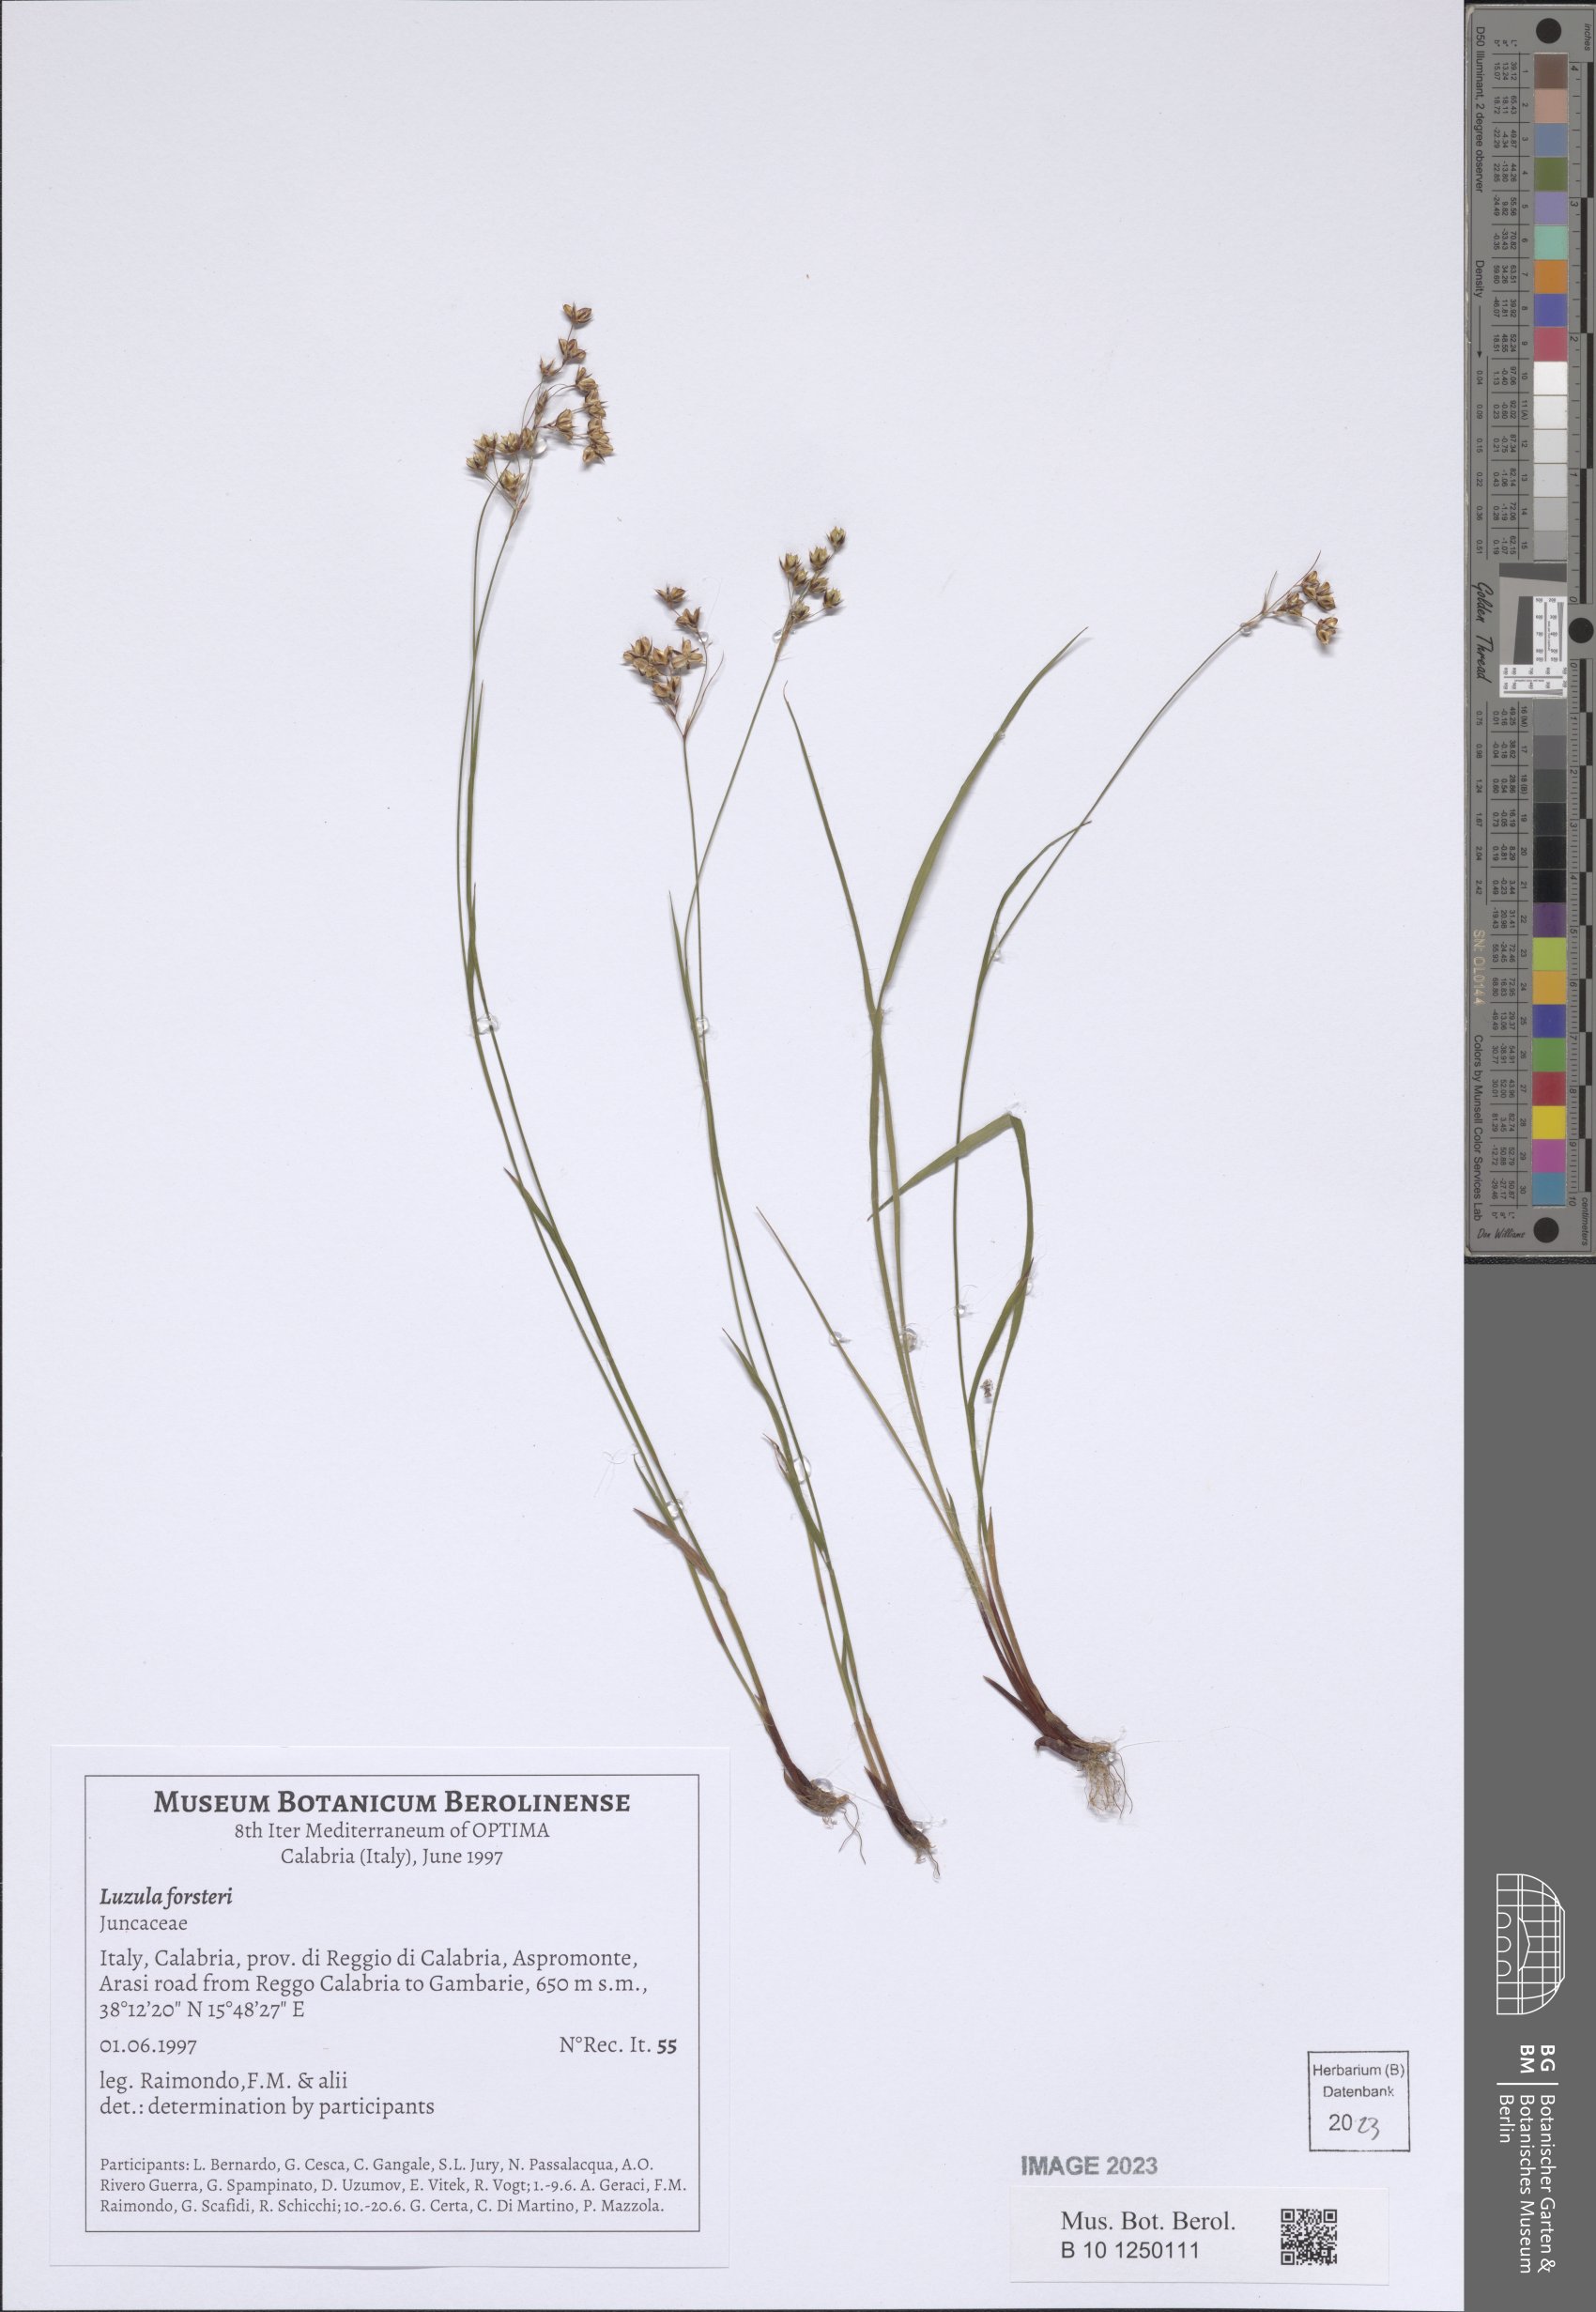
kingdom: Plantae
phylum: Tracheophyta
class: Liliopsida
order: Poales
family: Juncaceae
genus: Luzula
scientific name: Luzula forsteri
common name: Southern wood-rush
